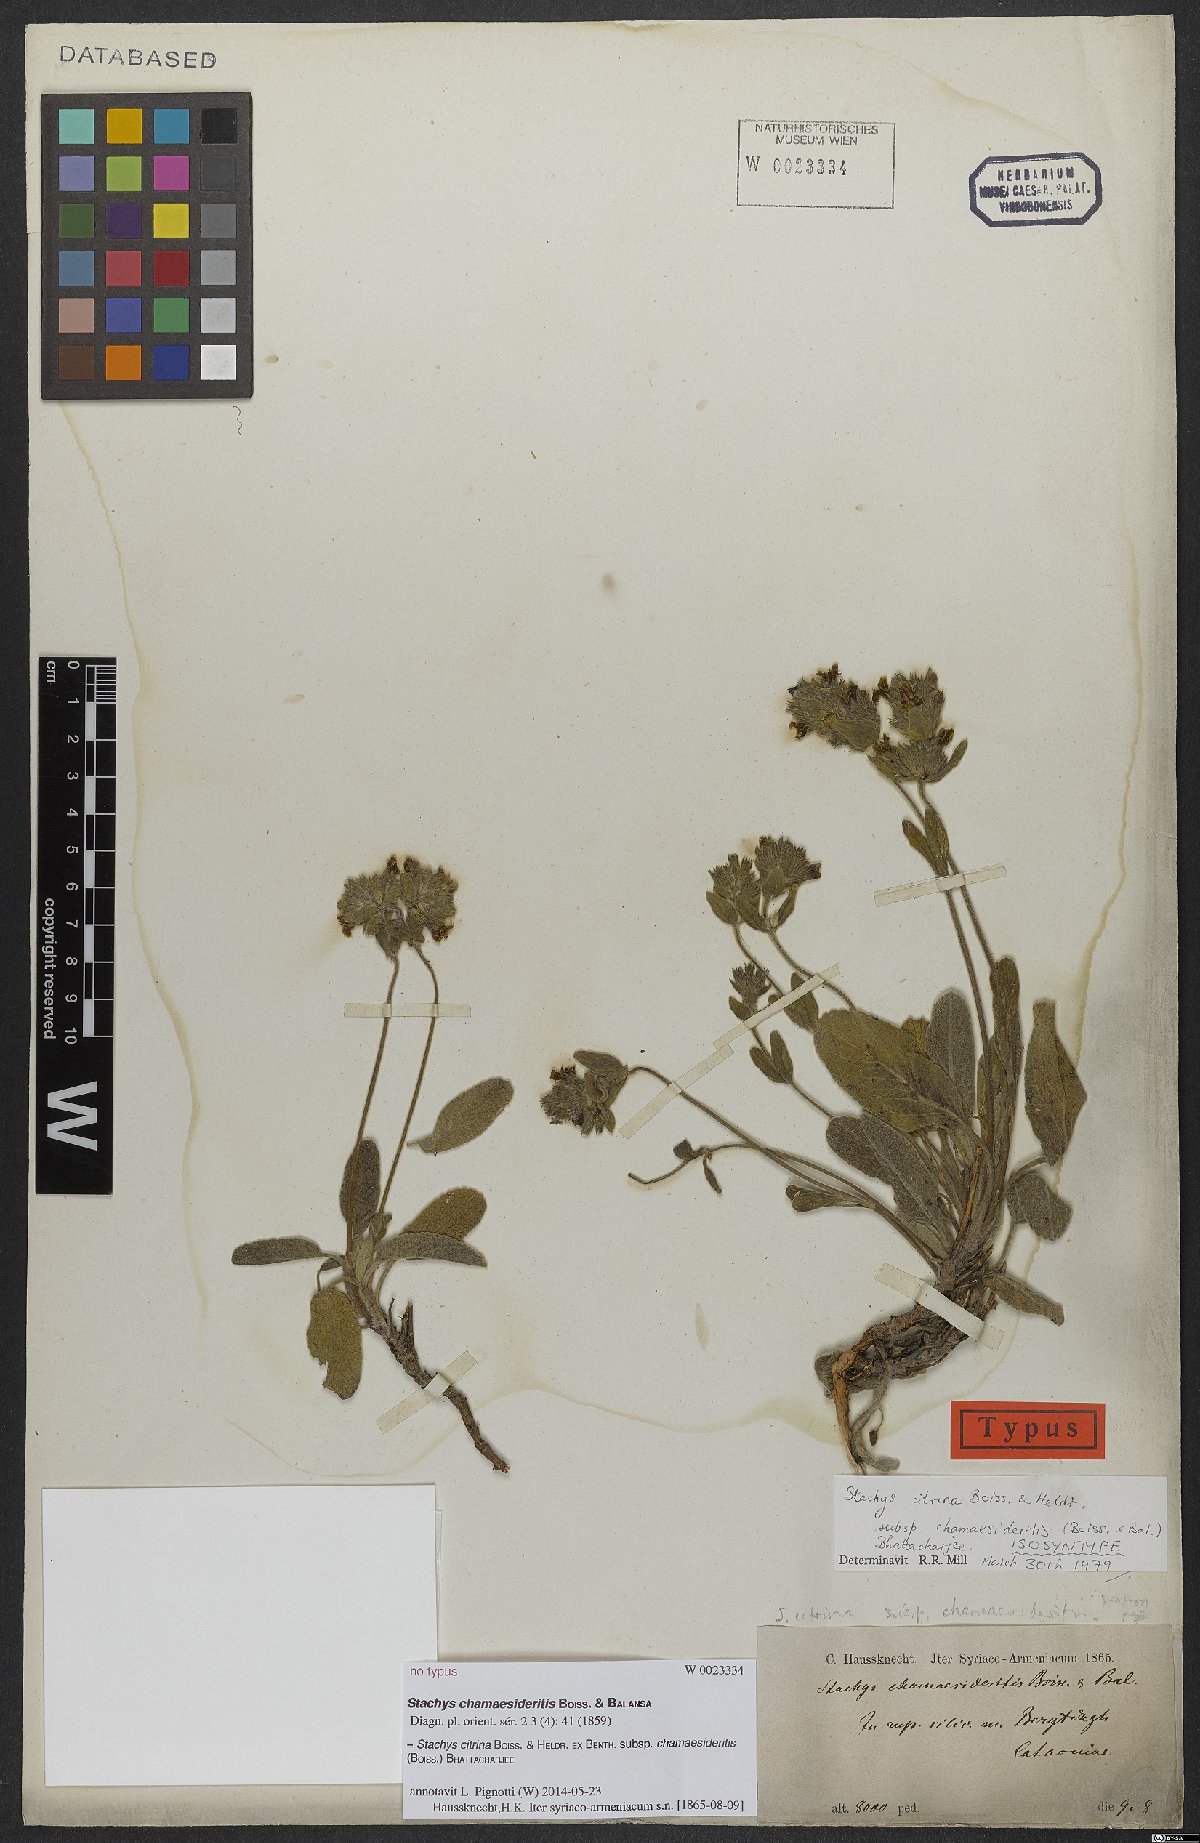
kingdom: Plantae
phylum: Tracheophyta
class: Magnoliopsida
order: Lamiales
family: Lamiaceae
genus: Stachys
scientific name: Stachys citrina
